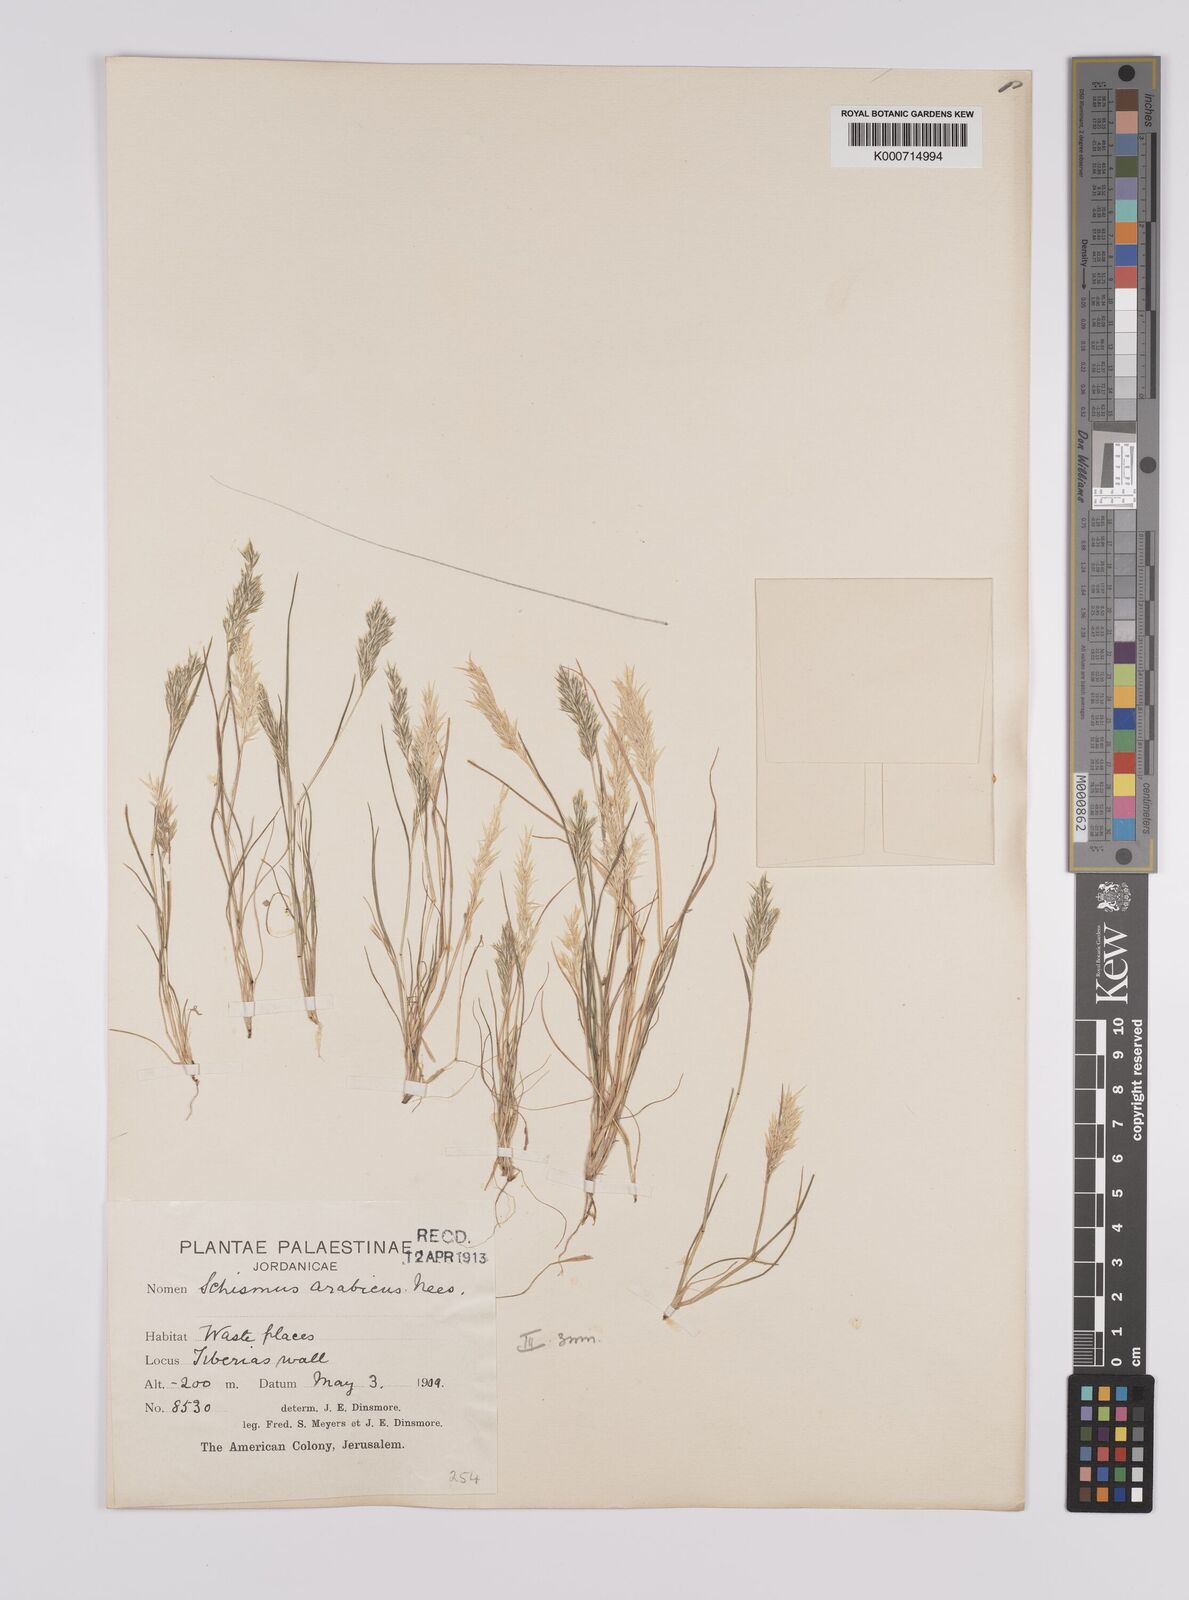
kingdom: Plantae
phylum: Tracheophyta
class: Liliopsida
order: Poales
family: Poaceae
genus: Schismus
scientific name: Schismus arabicus
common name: Arabian schismus
